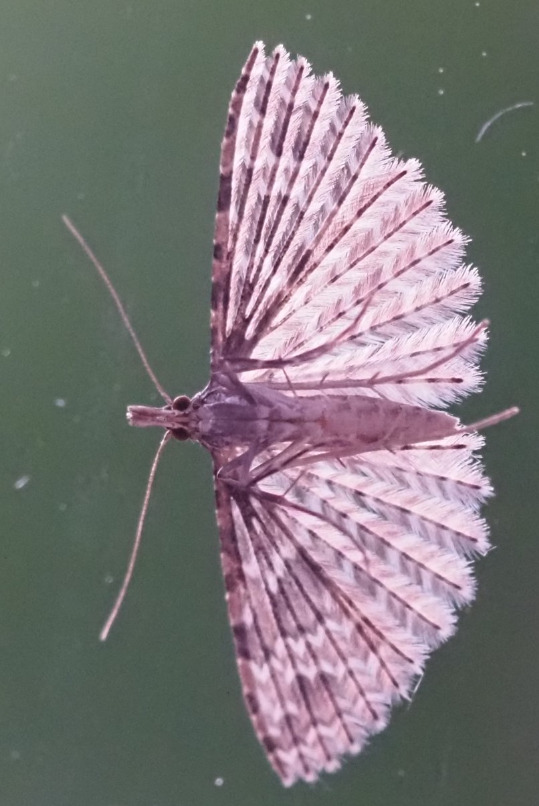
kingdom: Animalia
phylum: Arthropoda
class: Insecta
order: Lepidoptera
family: Alucitidae
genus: Alucita
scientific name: Alucita hexadactyla
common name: Kaprifoliefjermøl
